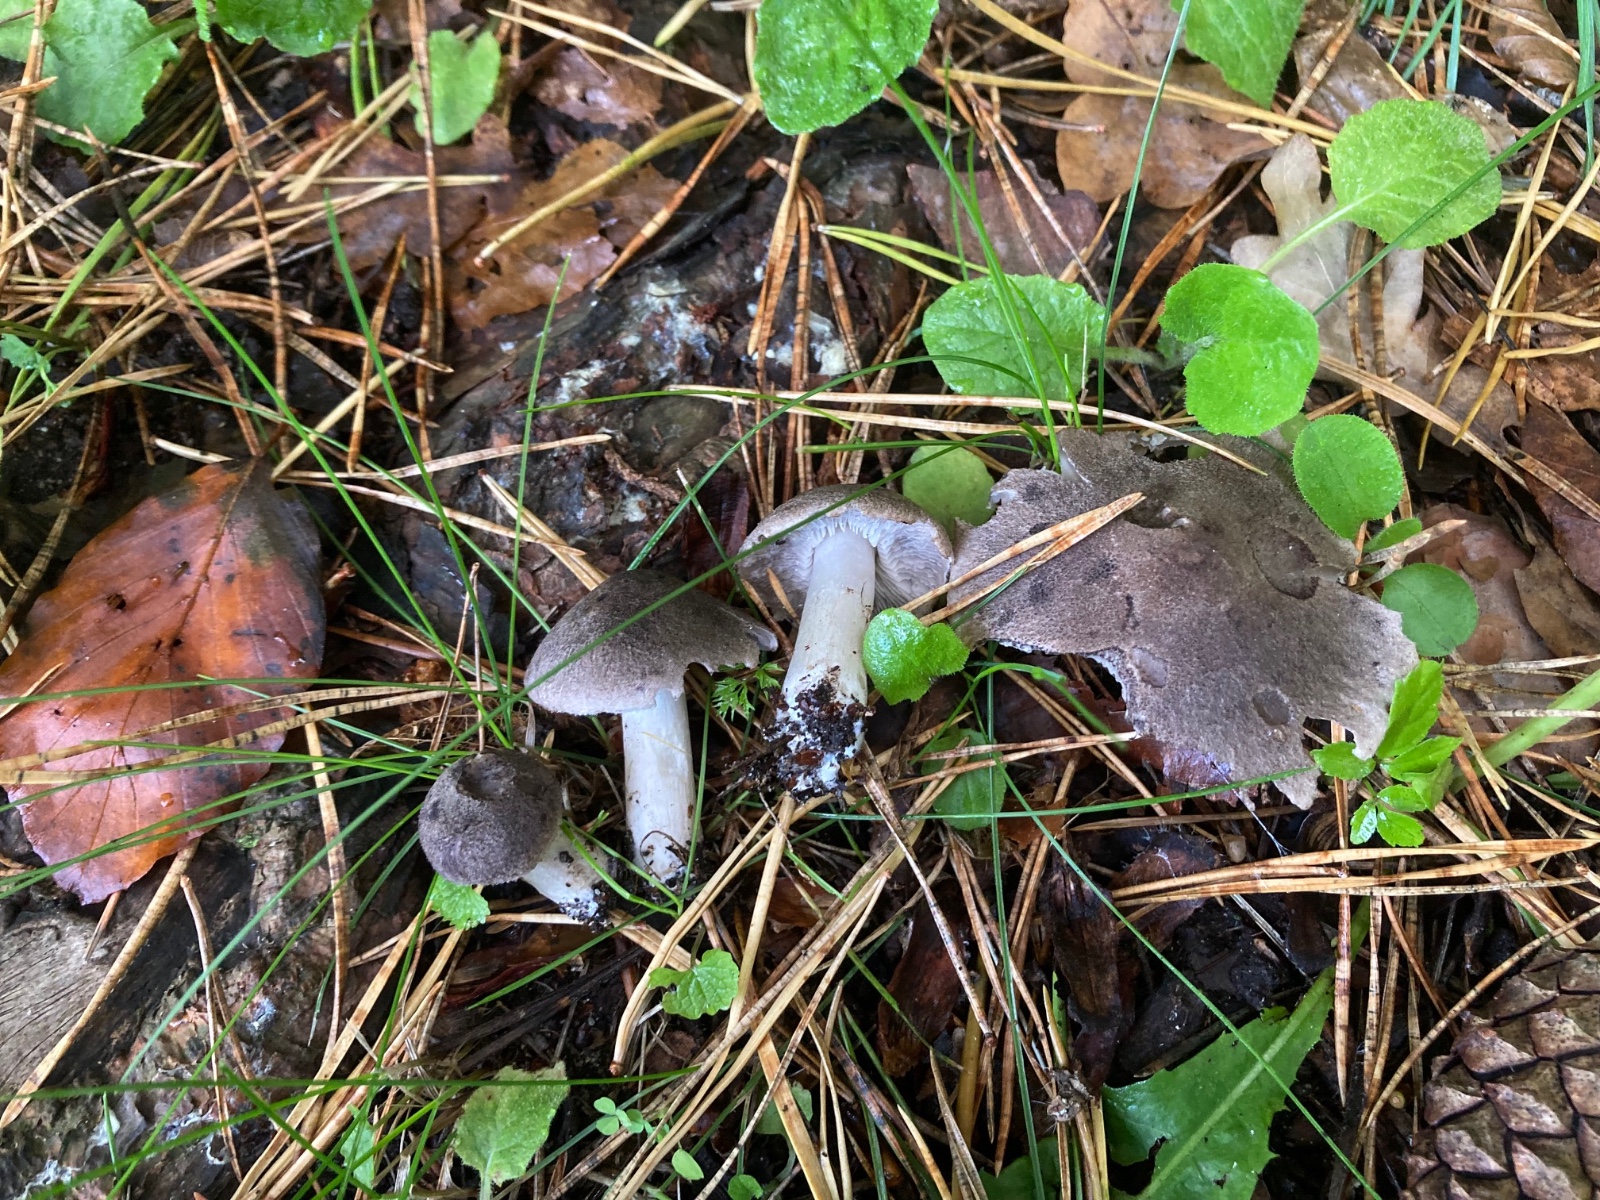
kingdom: Fungi
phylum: Basidiomycota
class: Agaricomycetes
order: Agaricales
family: Tricholomataceae
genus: Tricholoma
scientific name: Tricholoma terreum
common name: jordfarvet ridderhat
